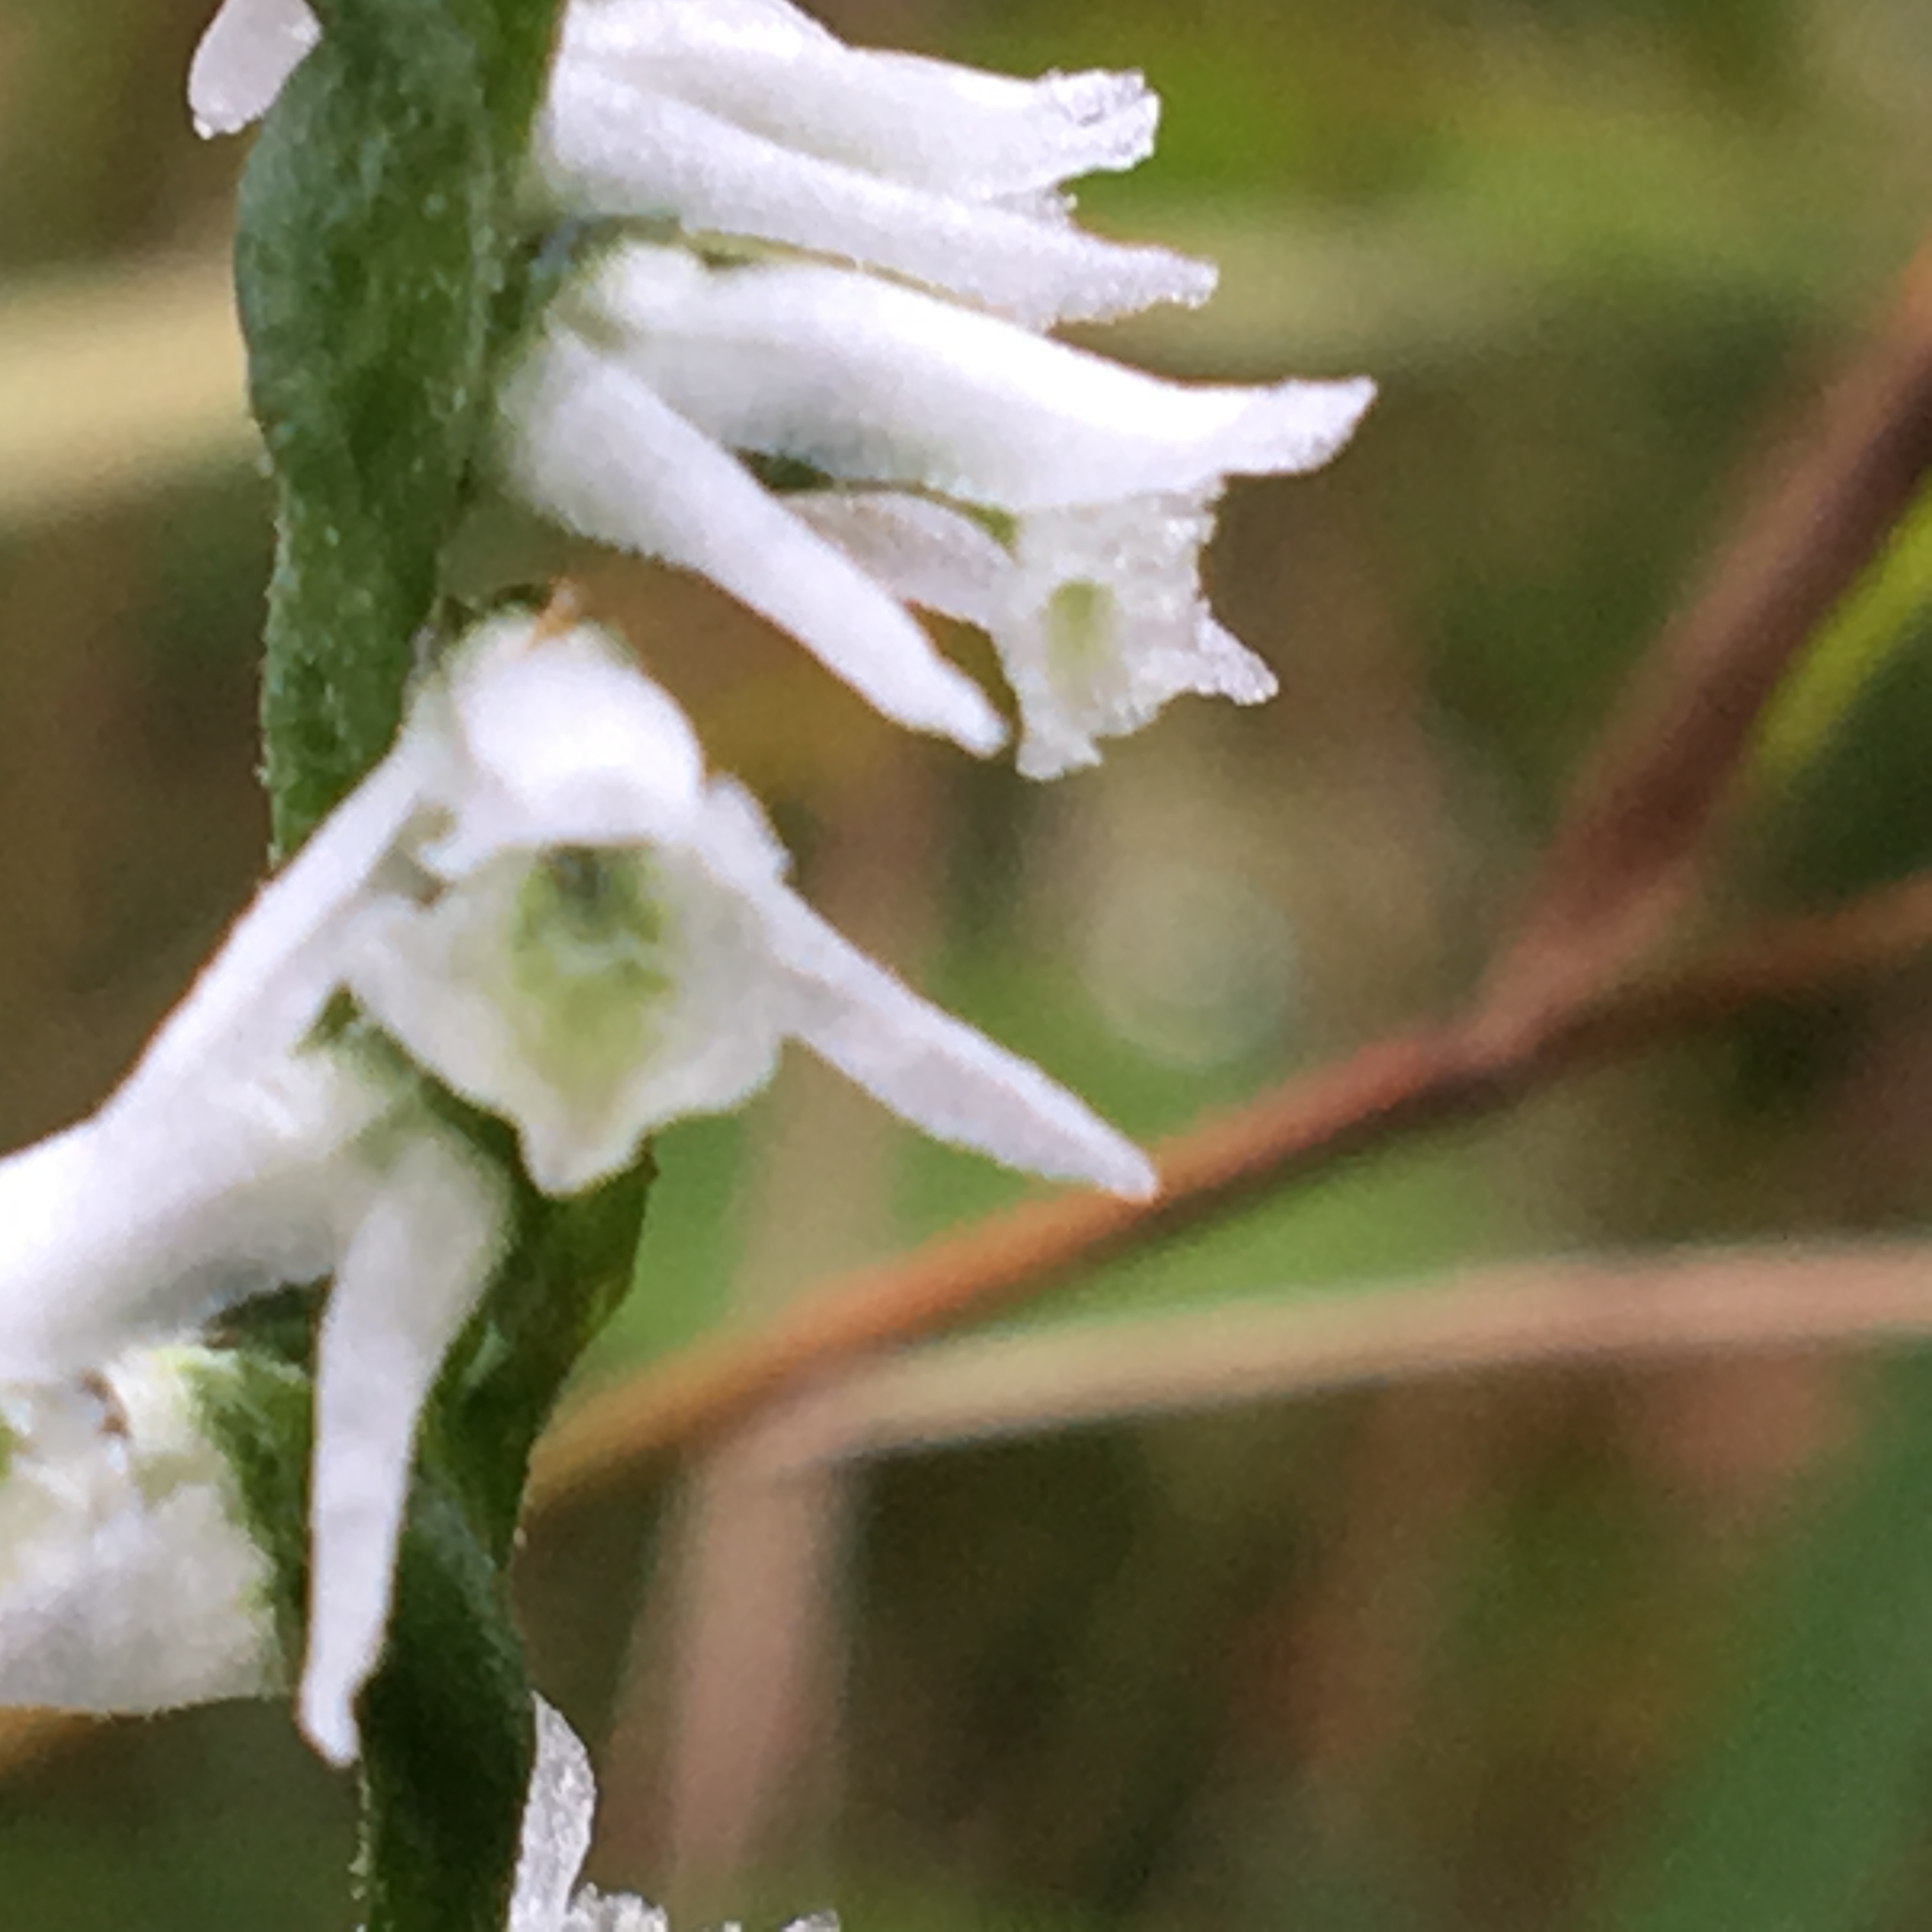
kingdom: Plantae
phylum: Tracheophyta
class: Liliopsida
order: Asparagales
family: Orchidaceae
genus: Spiranthes
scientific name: Spiranthes lacera
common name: northern slender lady's tresses
